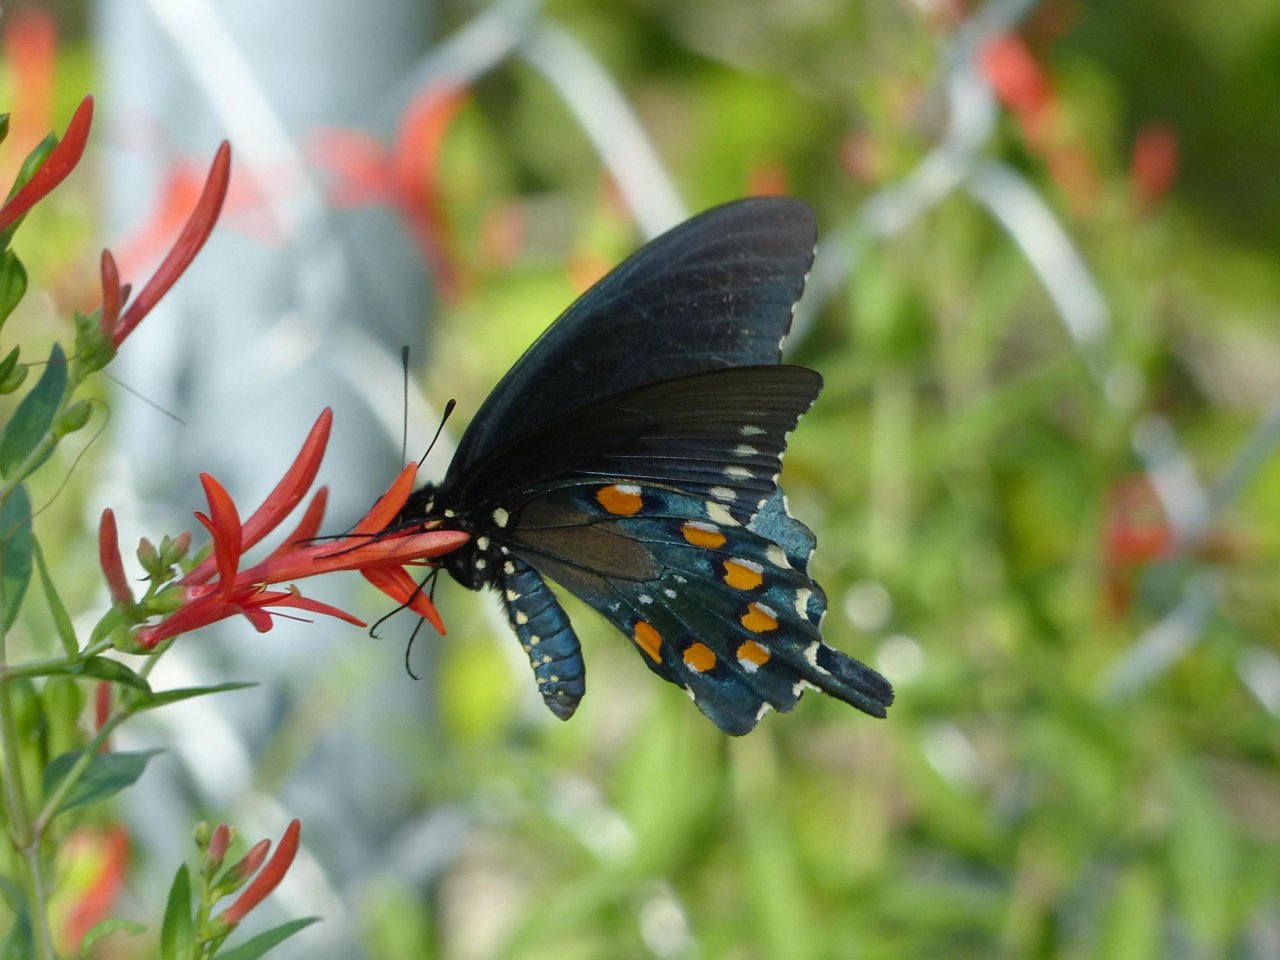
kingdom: Animalia
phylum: Arthropoda
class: Insecta
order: Lepidoptera
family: Papilionidae
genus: Battus
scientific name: Battus philenor
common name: Pipevine Swallowtail
